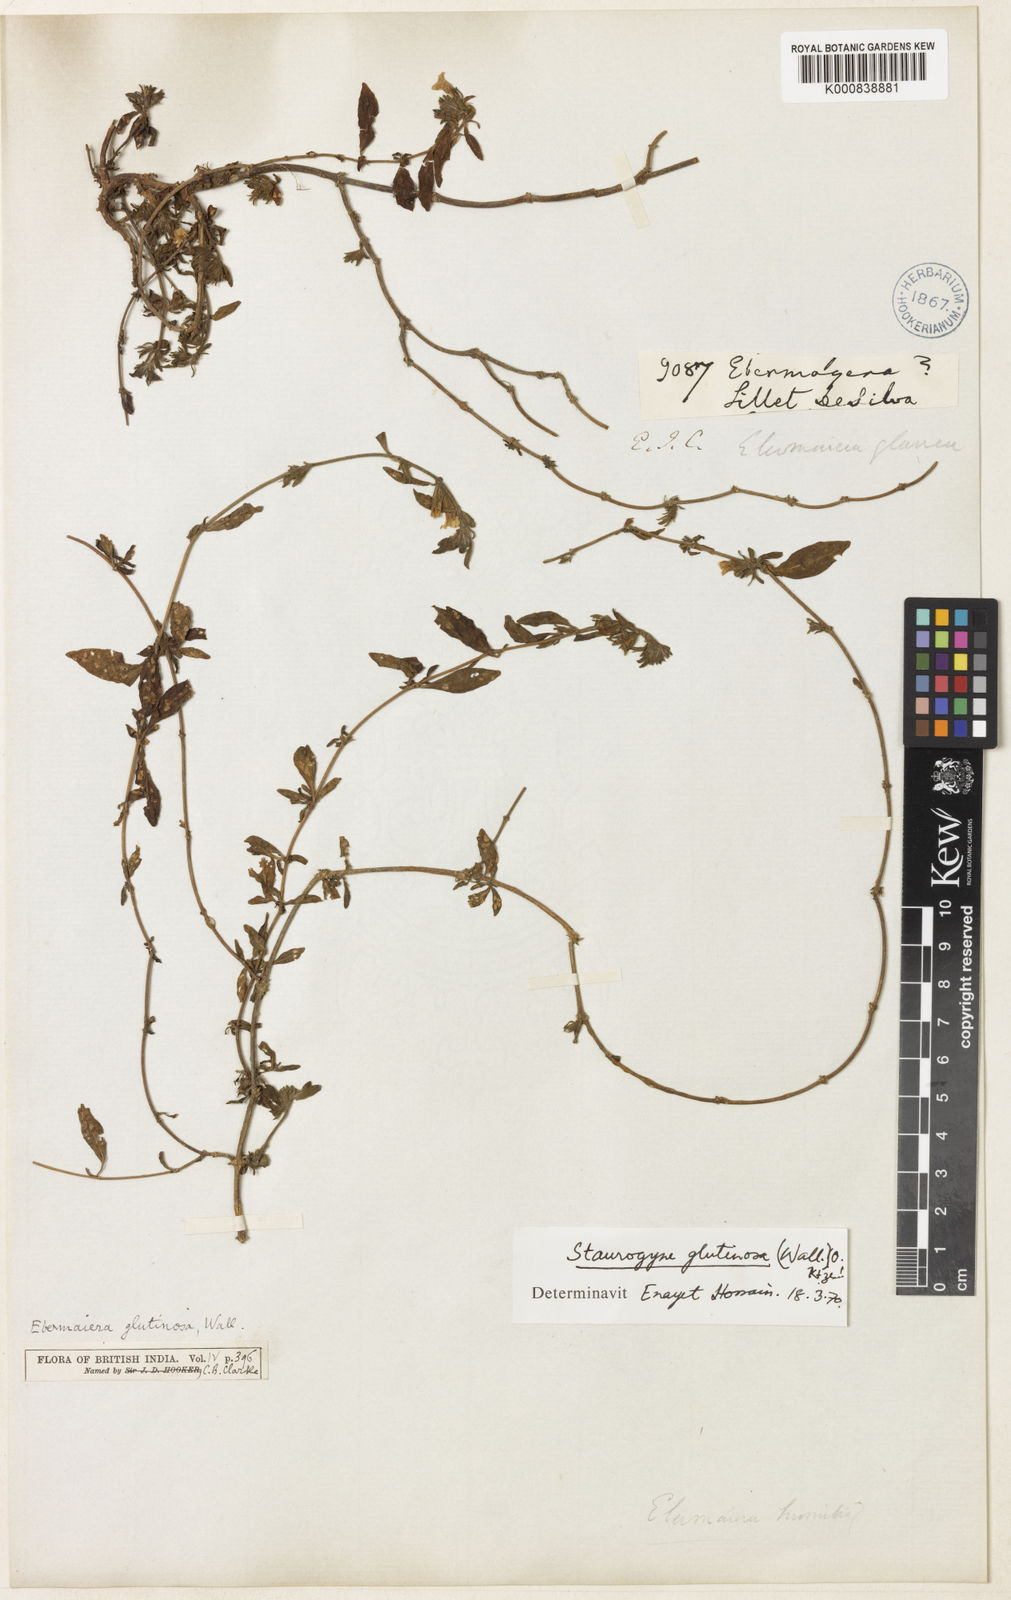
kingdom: Plantae
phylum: Tracheophyta
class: Magnoliopsida
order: Lamiales
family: Acanthaceae
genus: Staurogyne
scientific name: Staurogyne glutinosa
